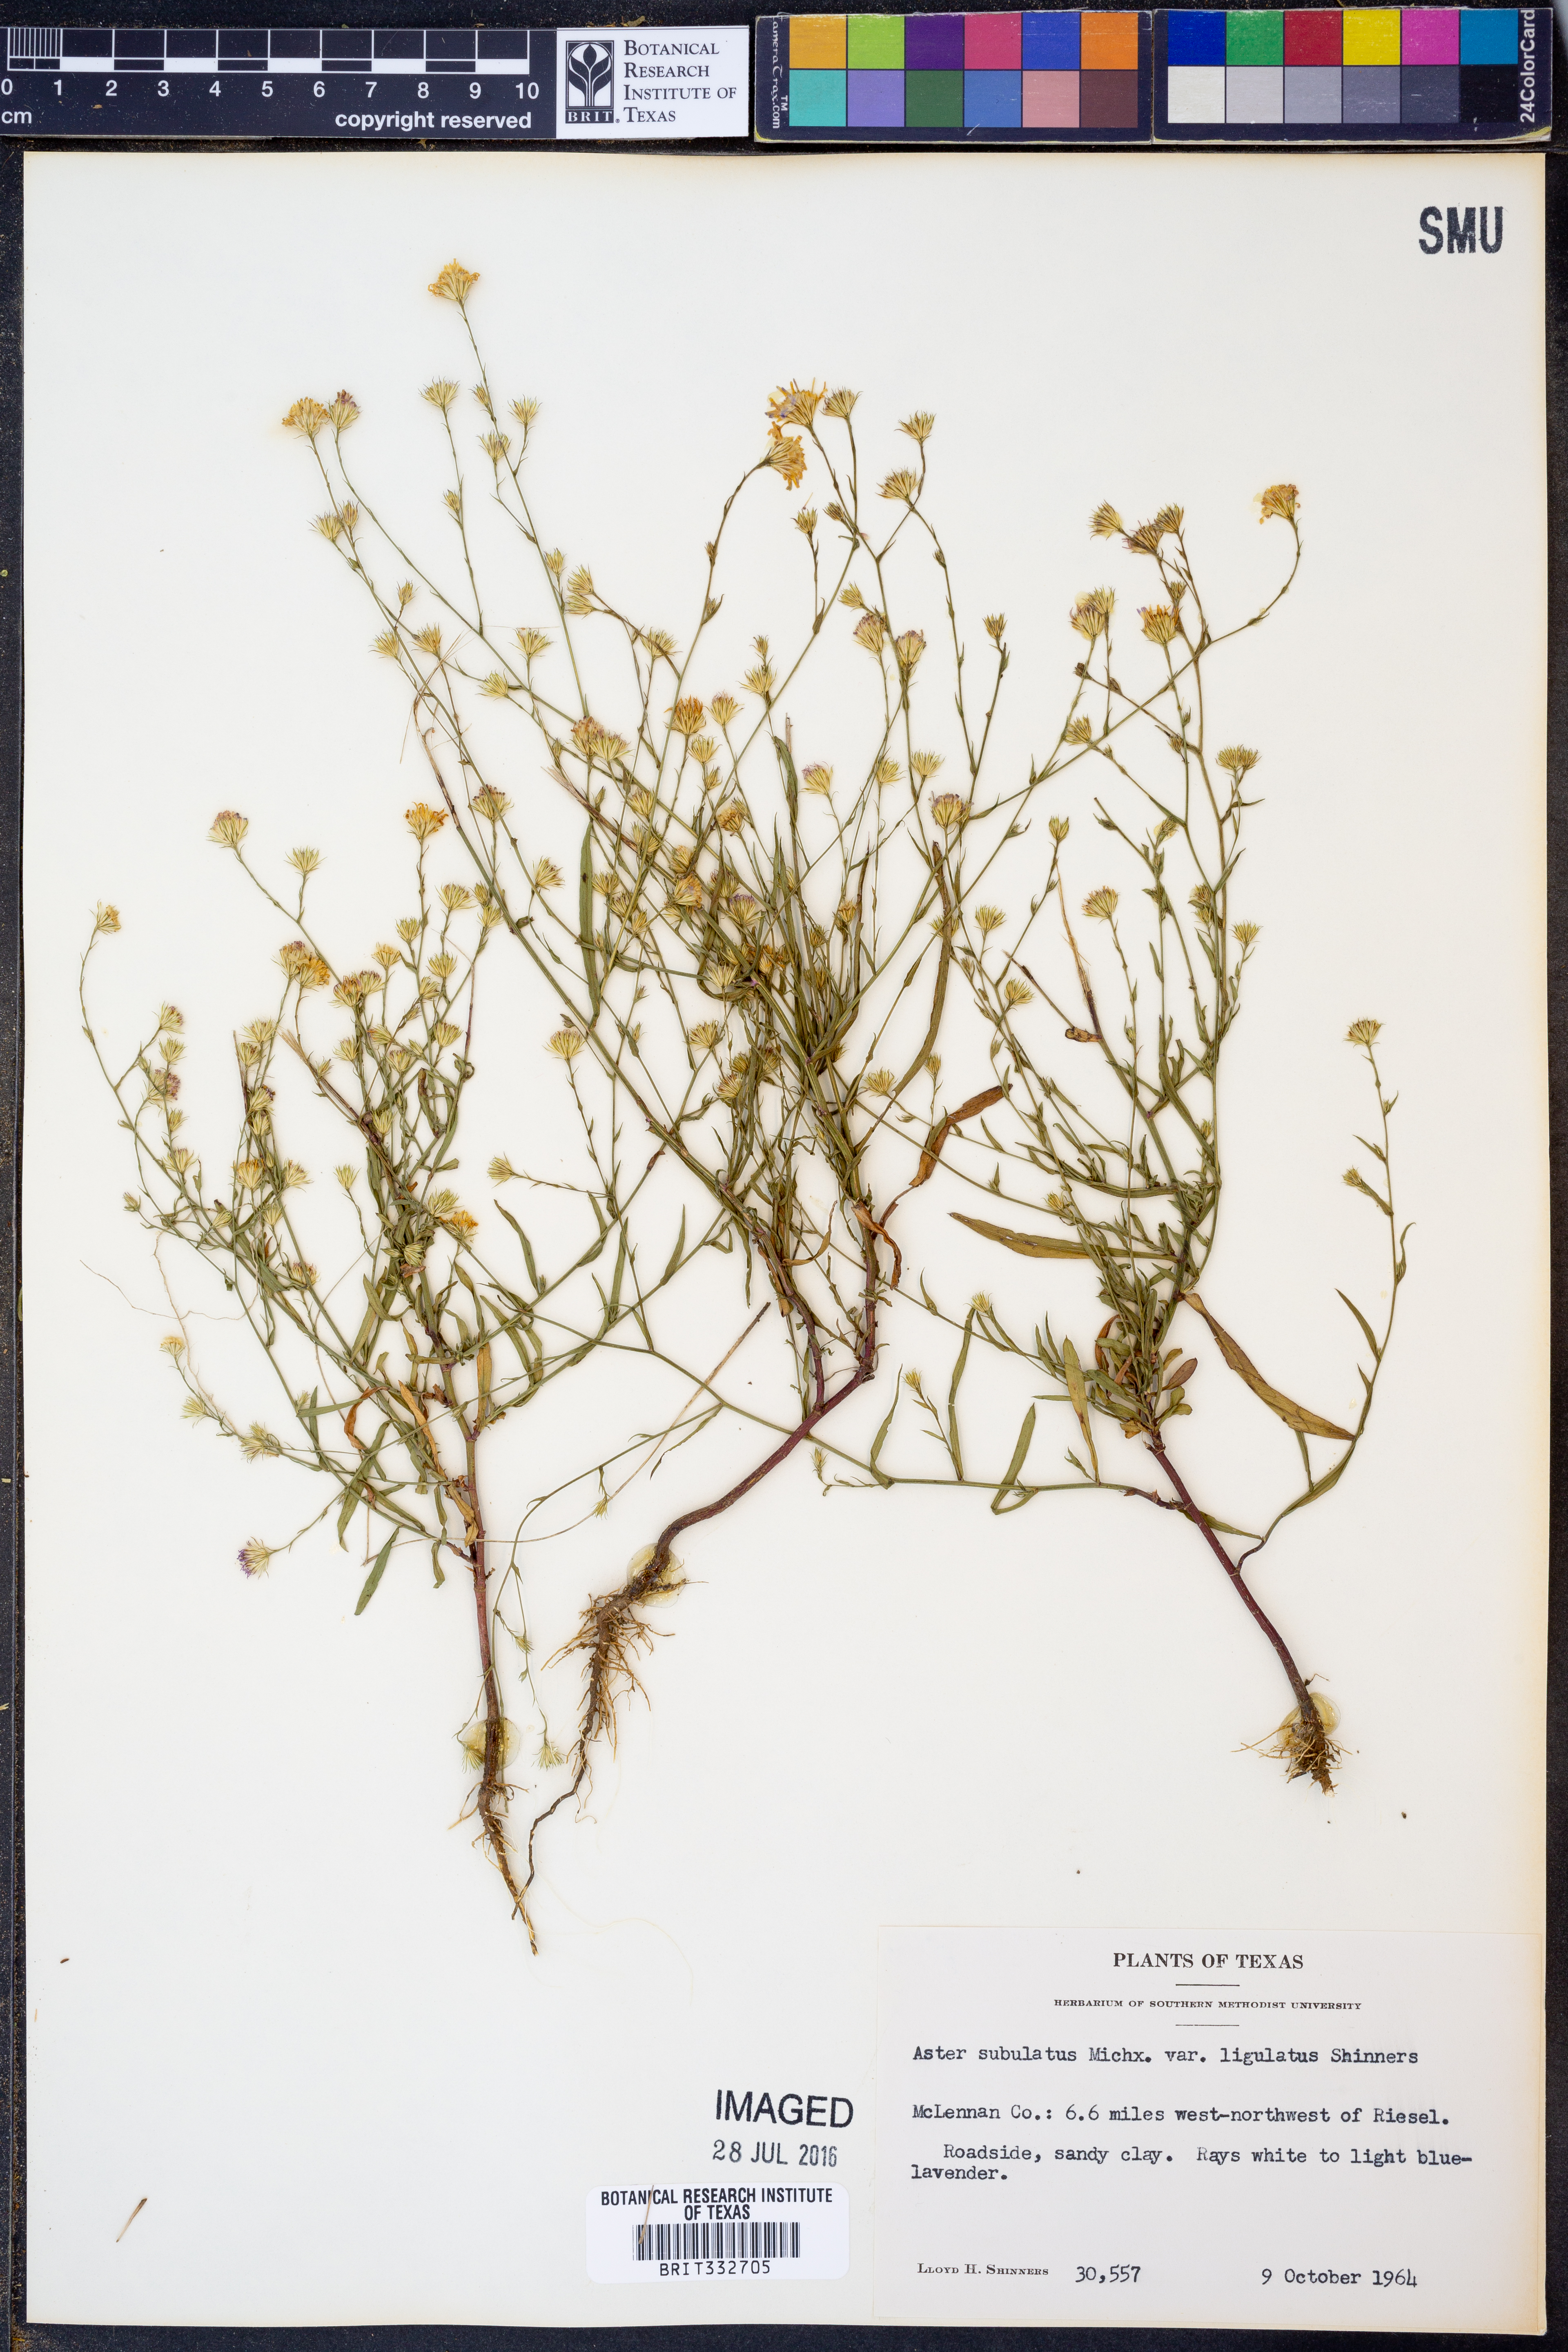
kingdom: Plantae
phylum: Tracheophyta
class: Magnoliopsida
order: Asterales
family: Asteraceae
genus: Symphyotrichum
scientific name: Symphyotrichum subulatum
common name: Annual saltmarsh aster
